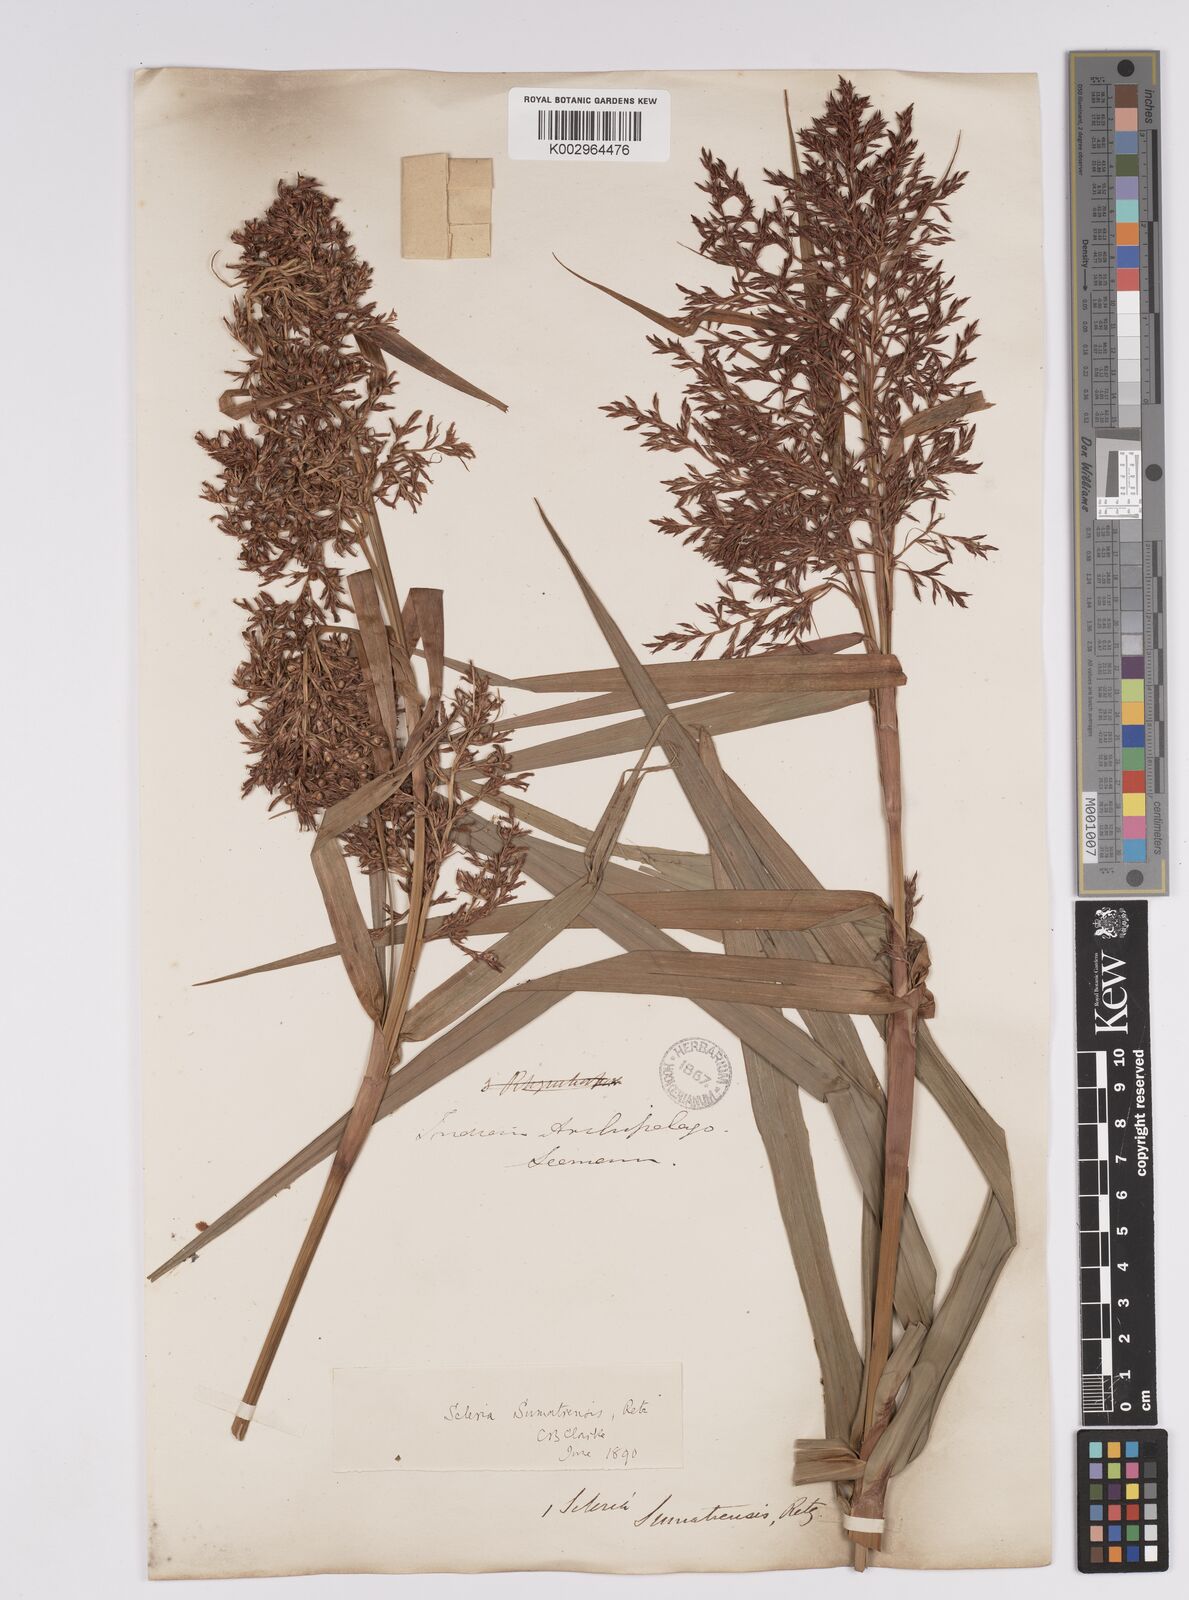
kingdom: Plantae
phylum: Tracheophyta
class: Liliopsida
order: Poales
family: Cyperaceae
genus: Scleria
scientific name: Scleria sumatrensis
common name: Sumatran scleria
